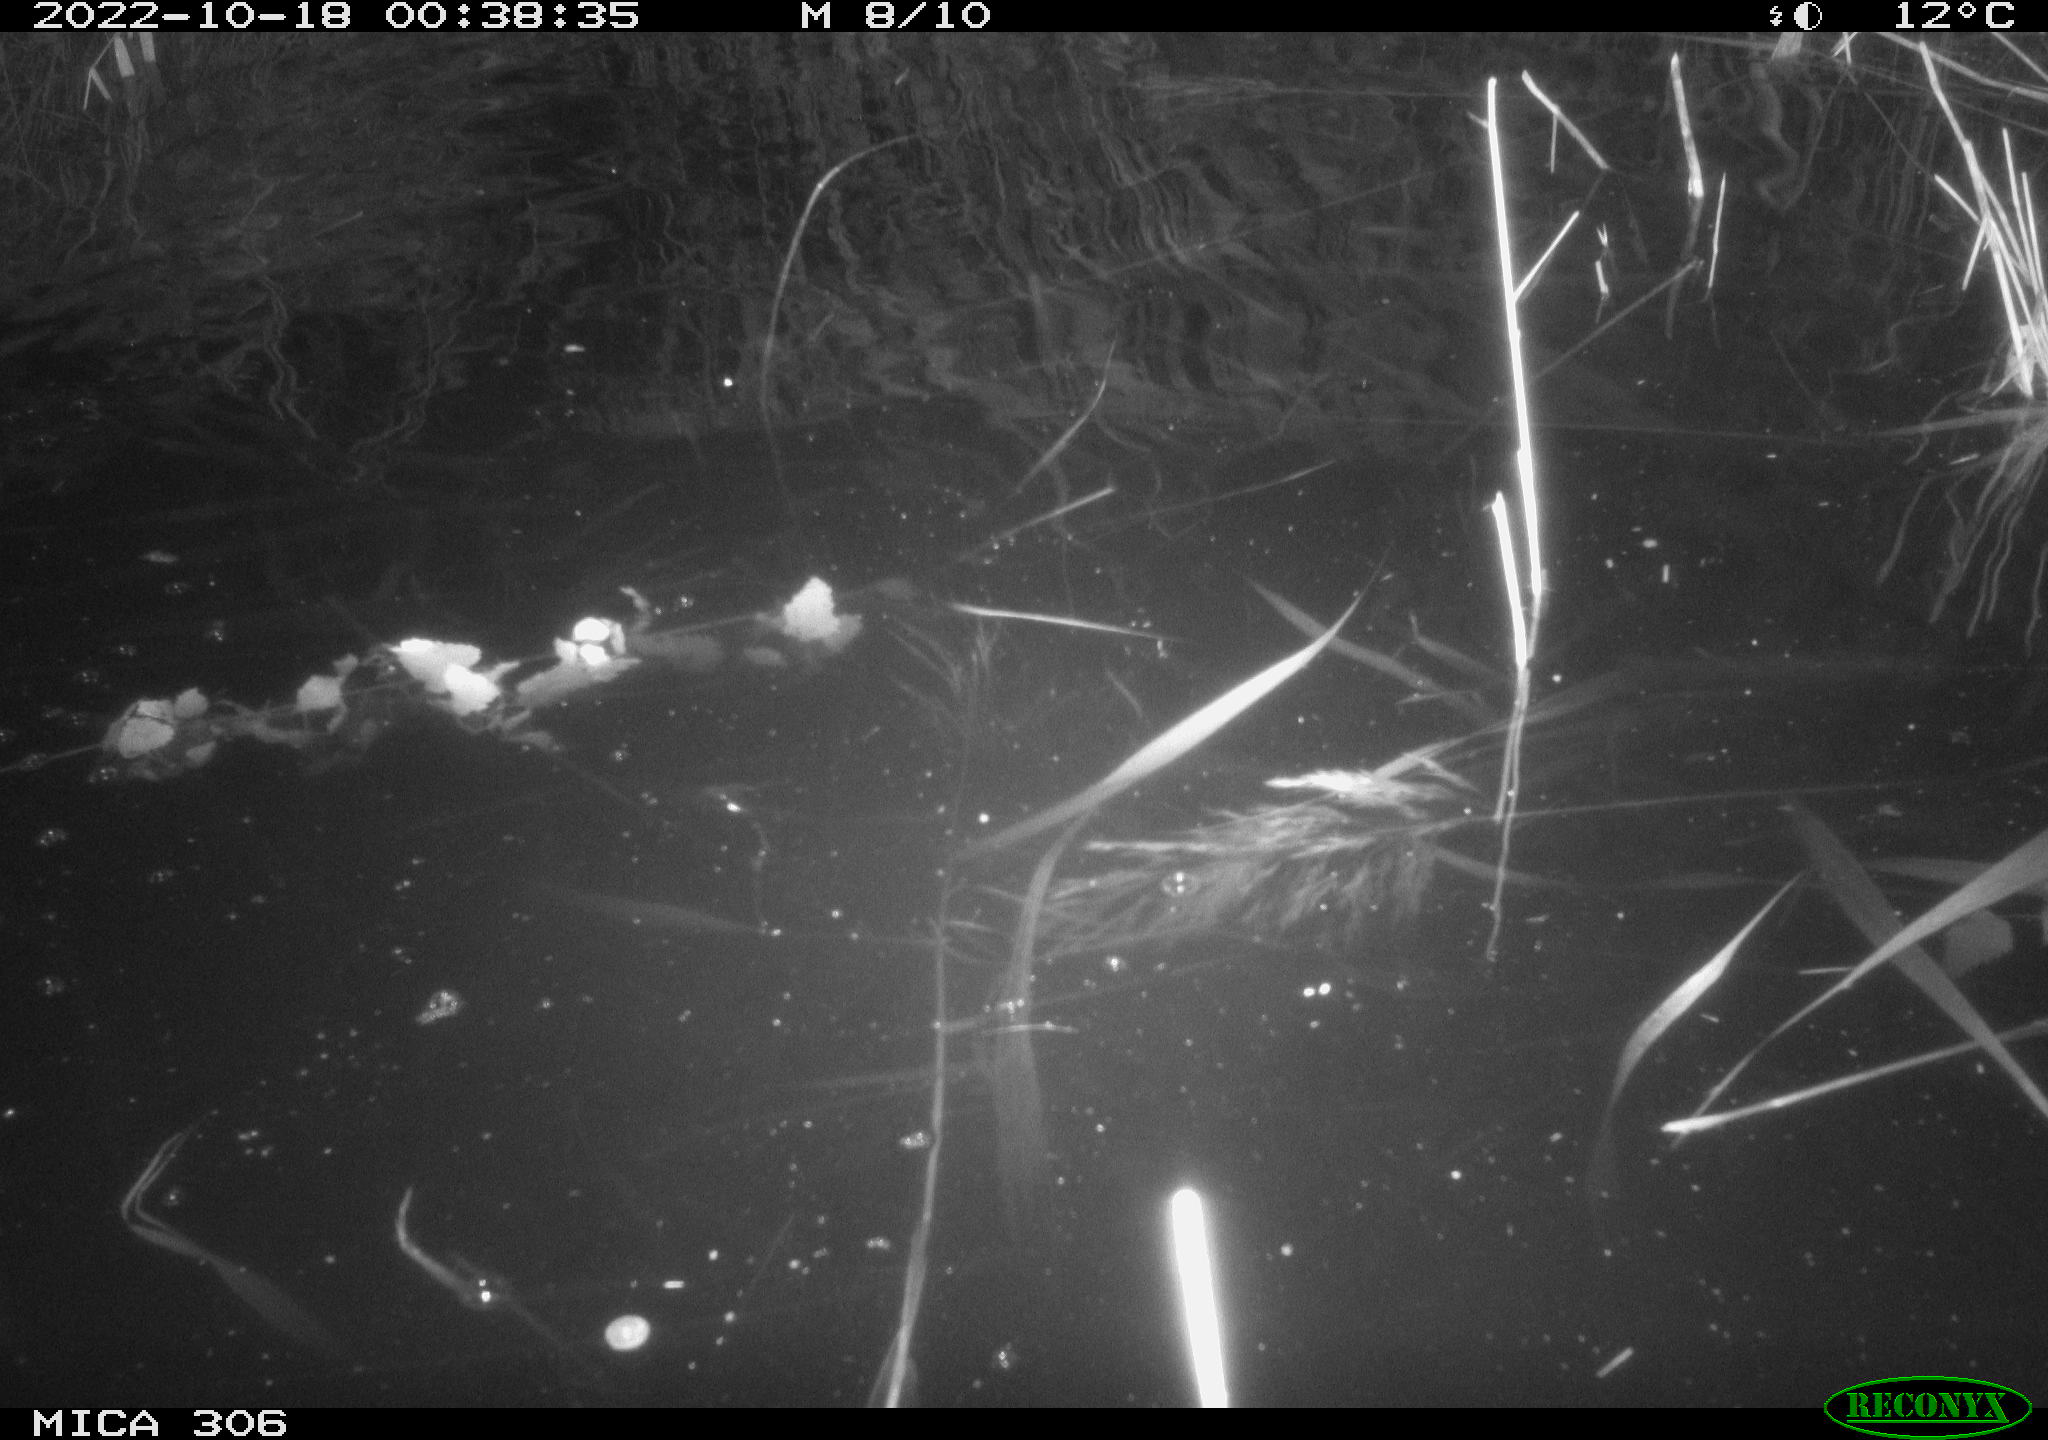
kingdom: Animalia
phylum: Chordata
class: Mammalia
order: Rodentia
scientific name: Rodentia
